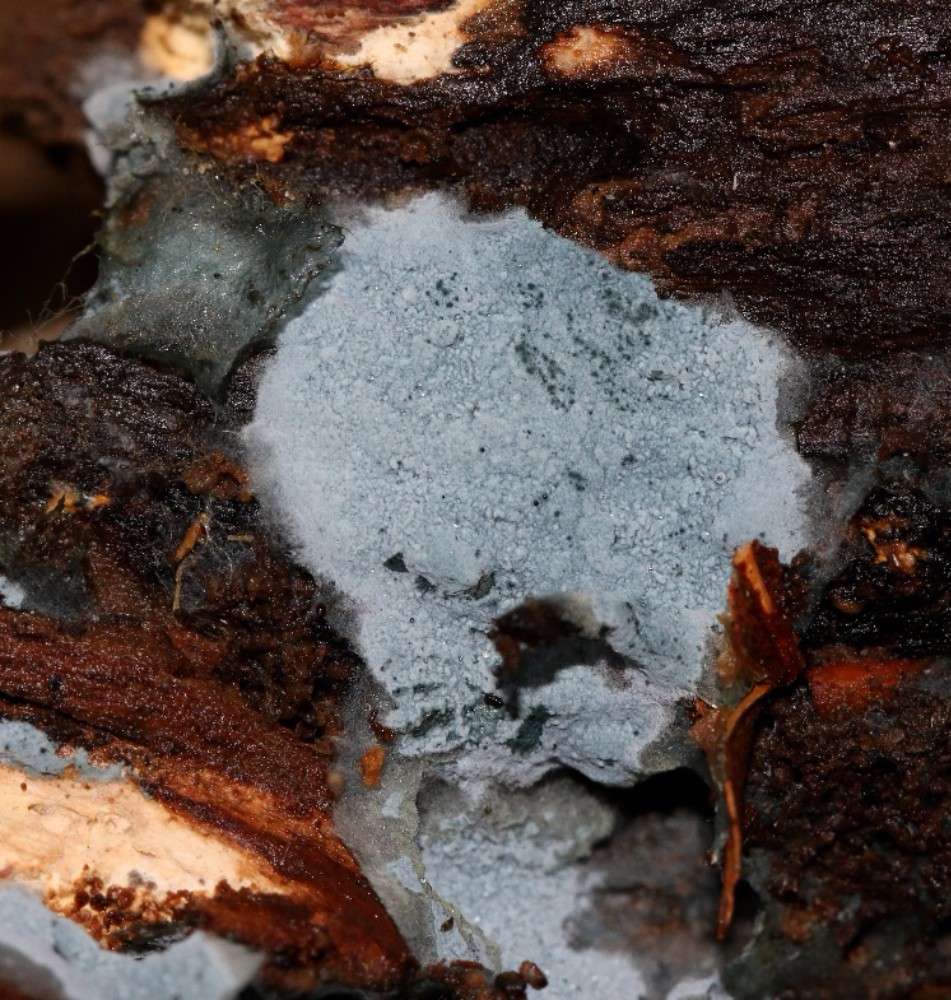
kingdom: Fungi
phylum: Basidiomycota
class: Agaricomycetes
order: Atheliales
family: Atheliaceae
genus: Byssocorticium
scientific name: Byssocorticium atrovirens
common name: blå førnehinde
